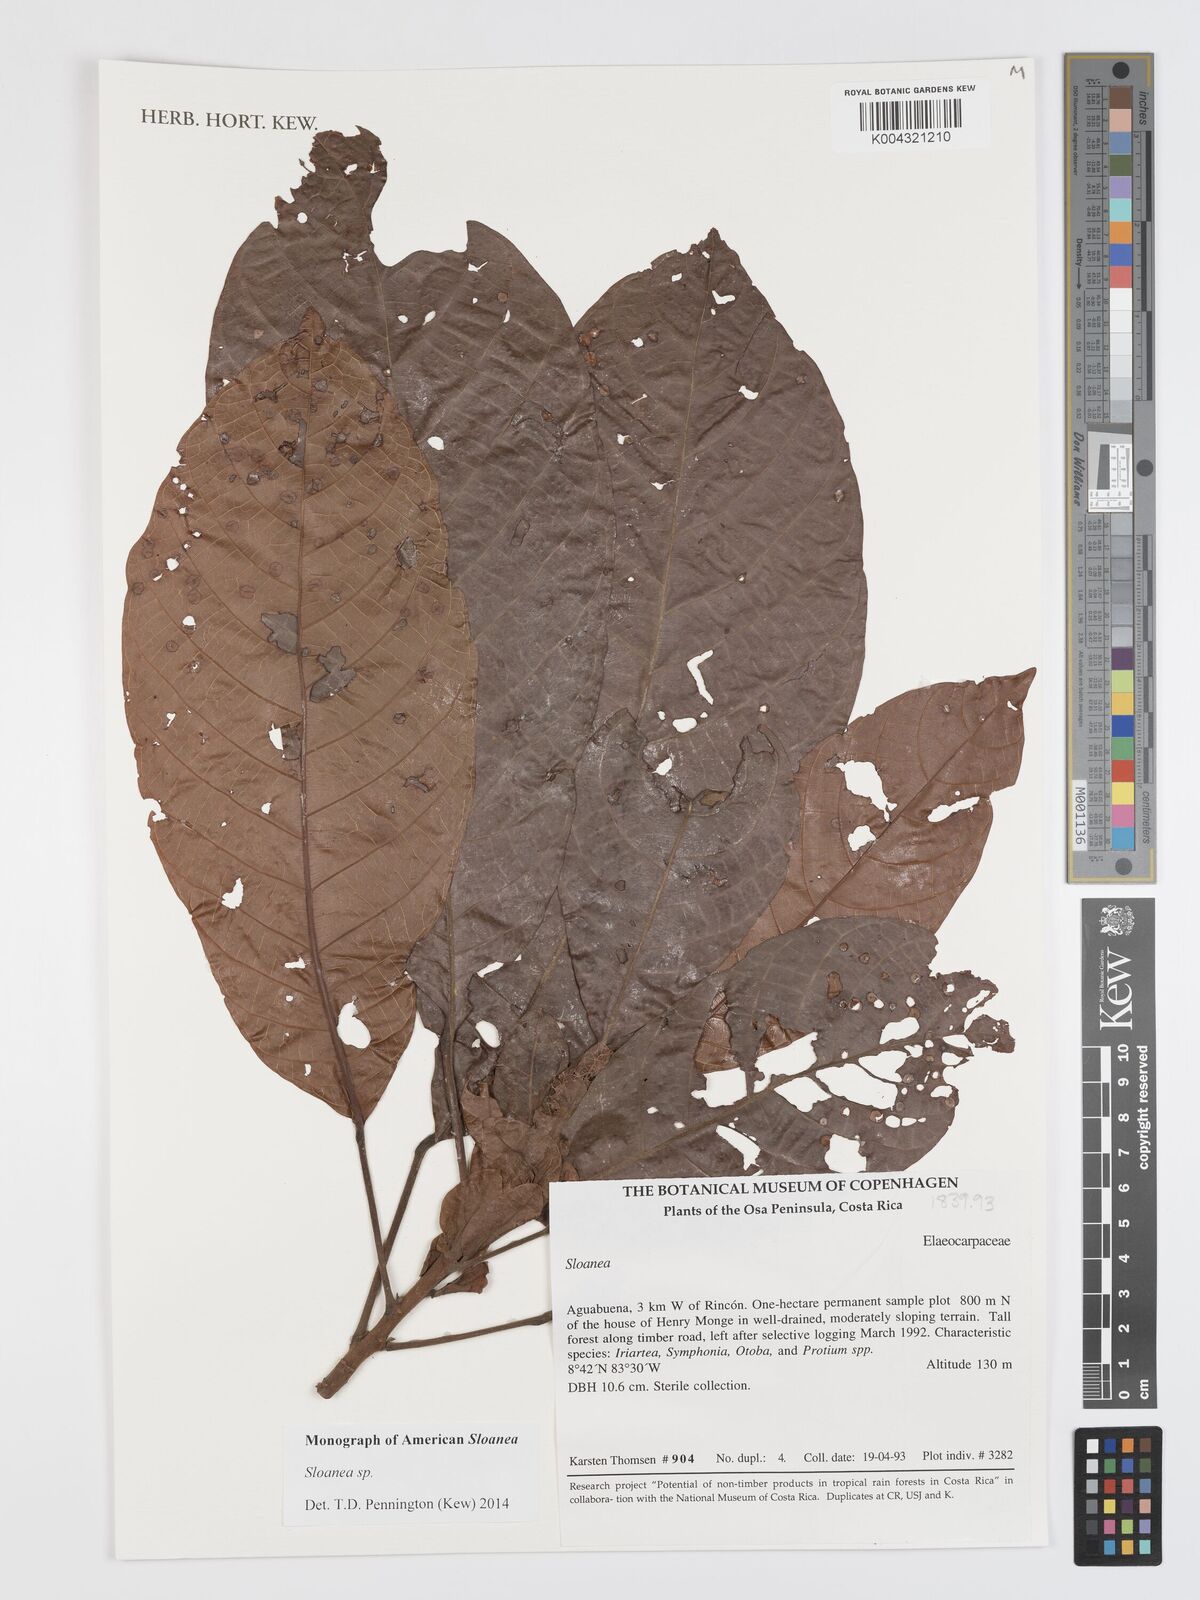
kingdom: Plantae
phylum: Tracheophyta
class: Magnoliopsida
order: Oxalidales
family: Elaeocarpaceae
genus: Sloanea
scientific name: Sloanea
